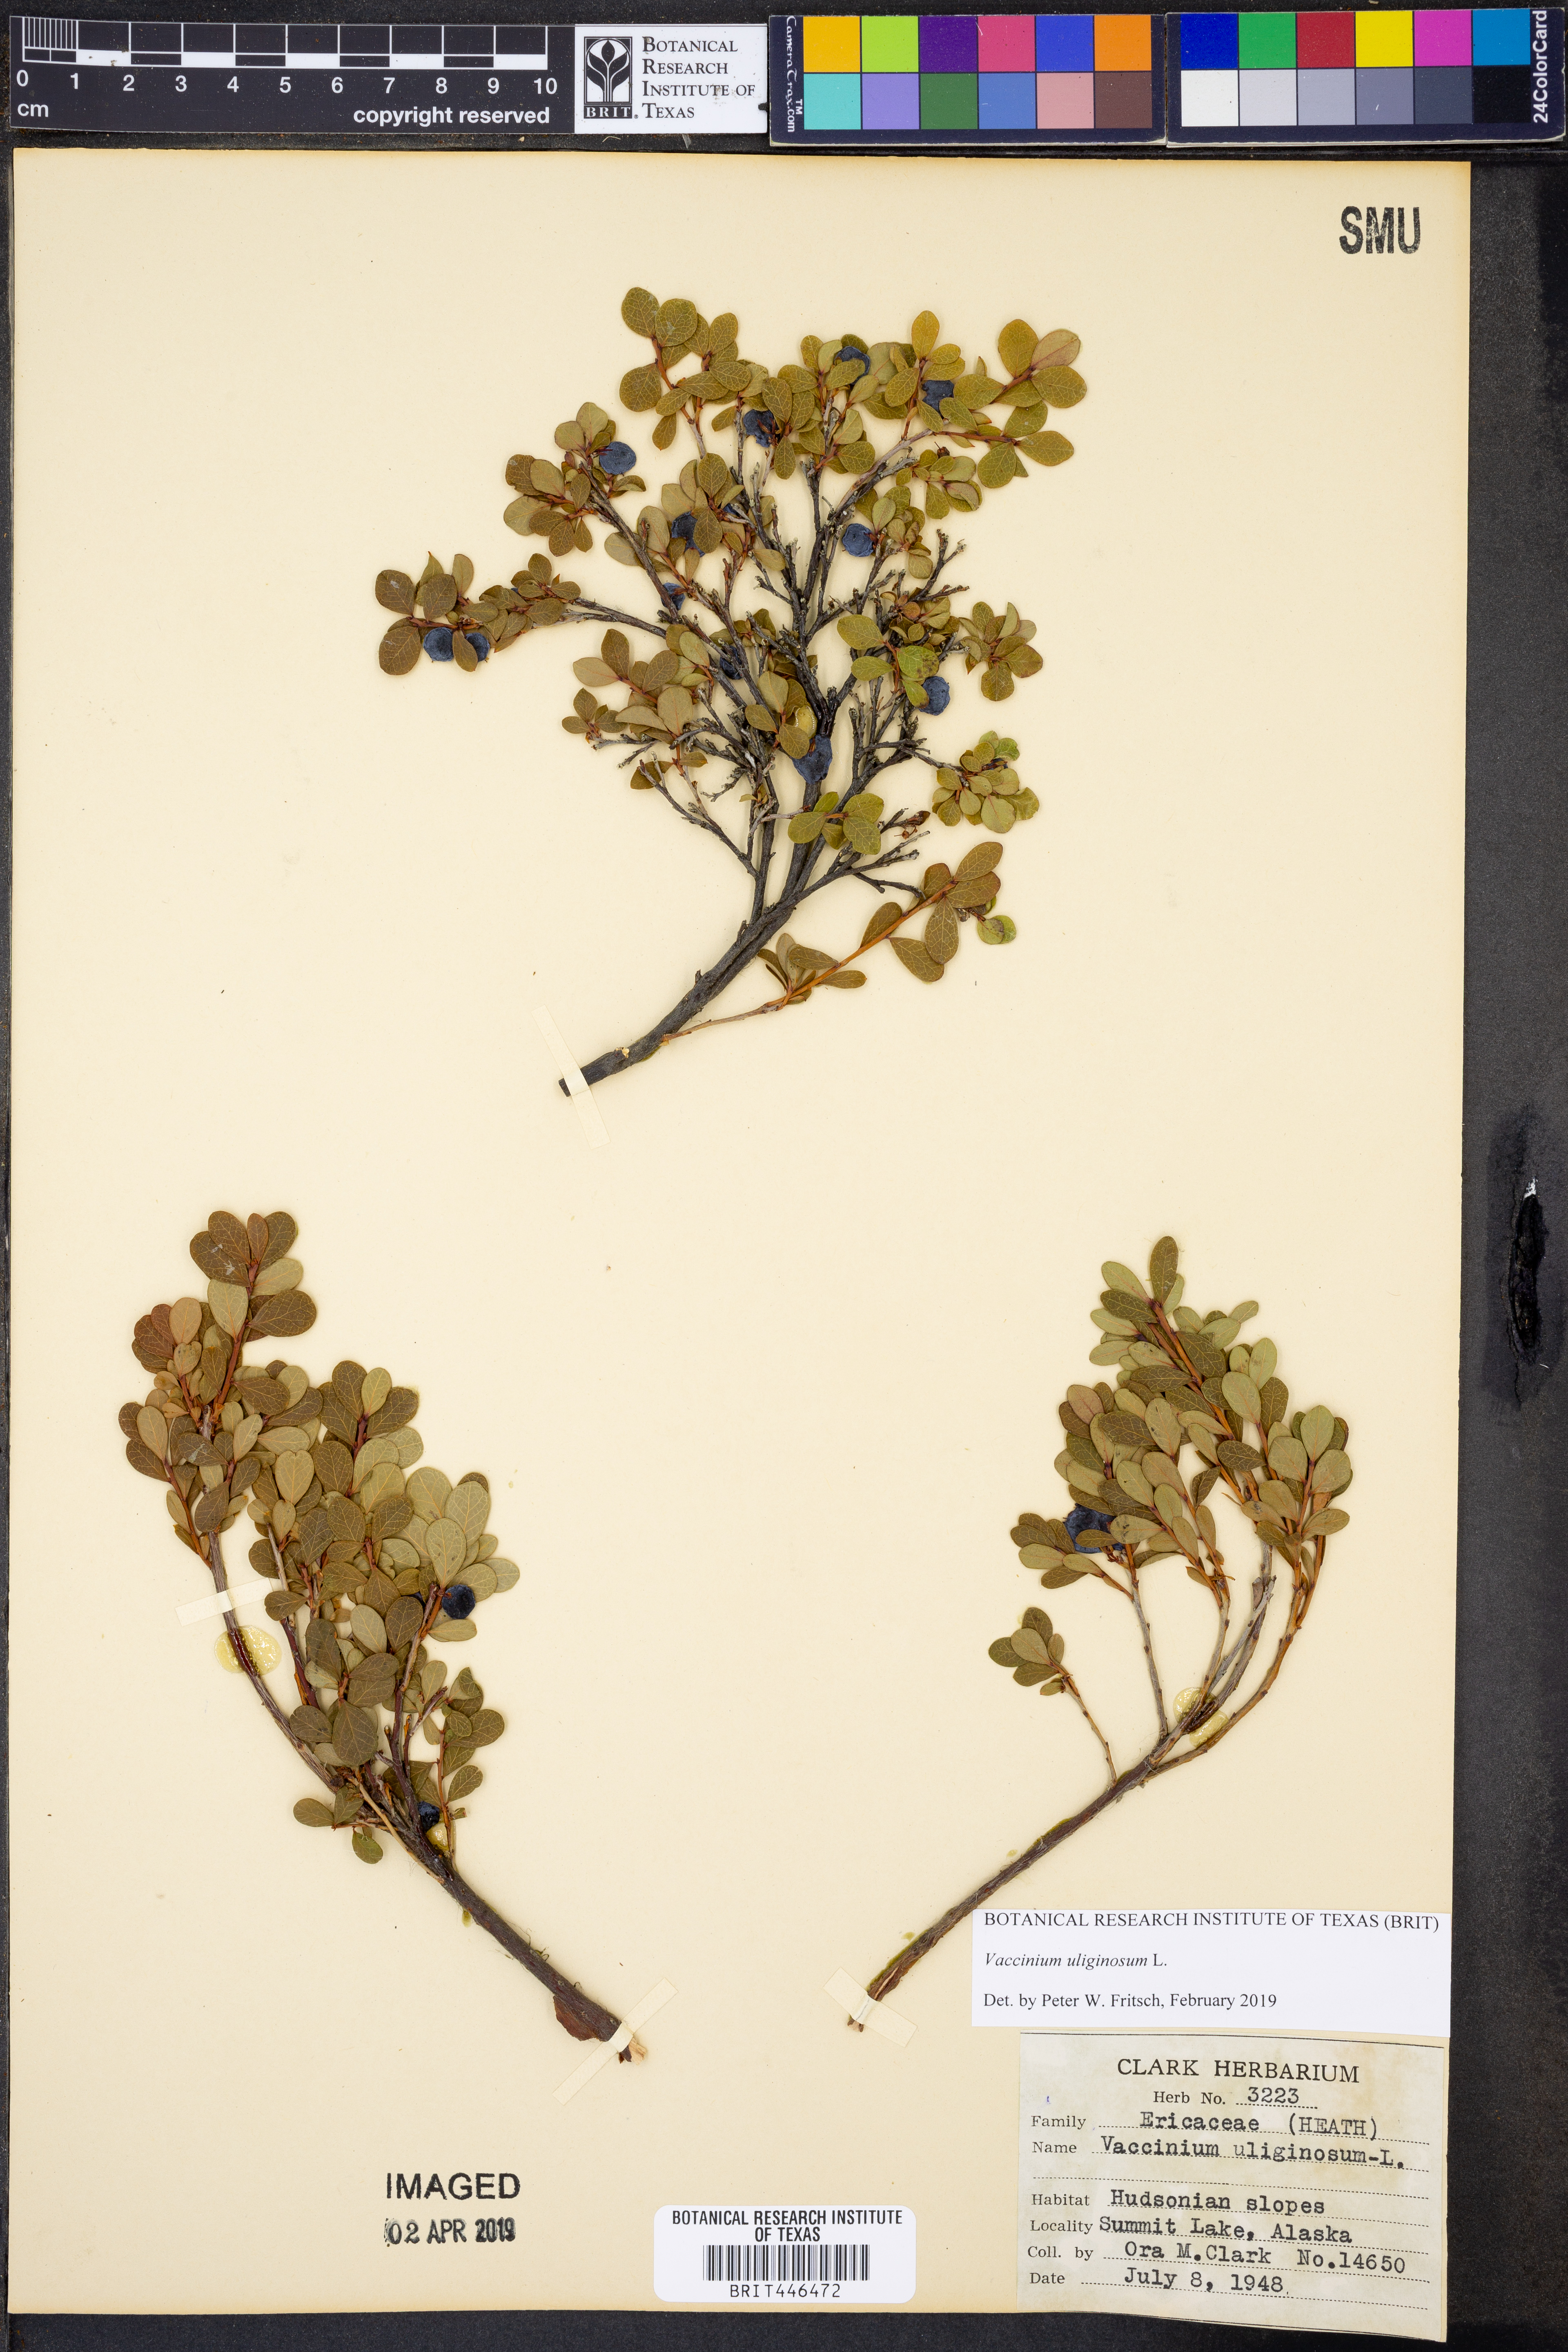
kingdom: Plantae
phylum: Tracheophyta
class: Magnoliopsida
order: Ericales
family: Ericaceae
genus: Vaccinium
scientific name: Vaccinium uliginosum
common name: Bog bilberry
